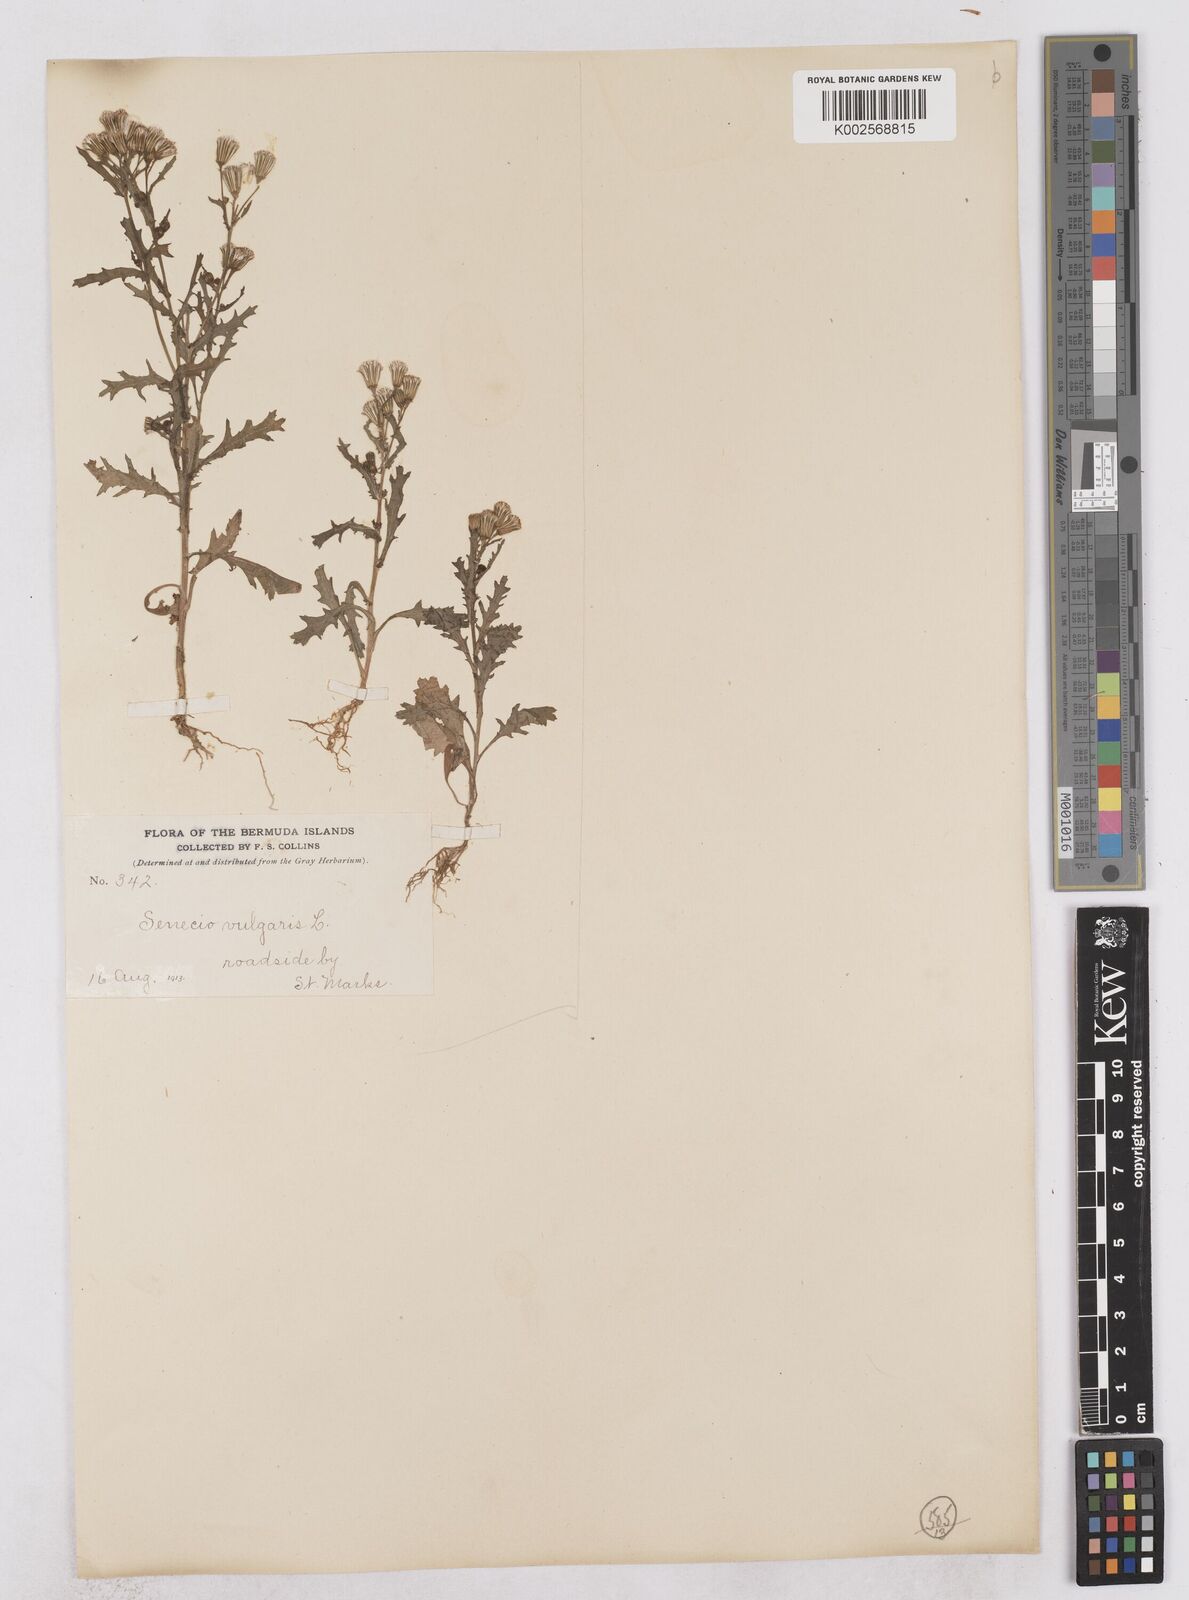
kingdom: Plantae
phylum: Tracheophyta
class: Magnoliopsida
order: Asterales
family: Asteraceae
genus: Senecio
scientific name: Senecio vulgaris
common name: Old-man-in-the-spring
